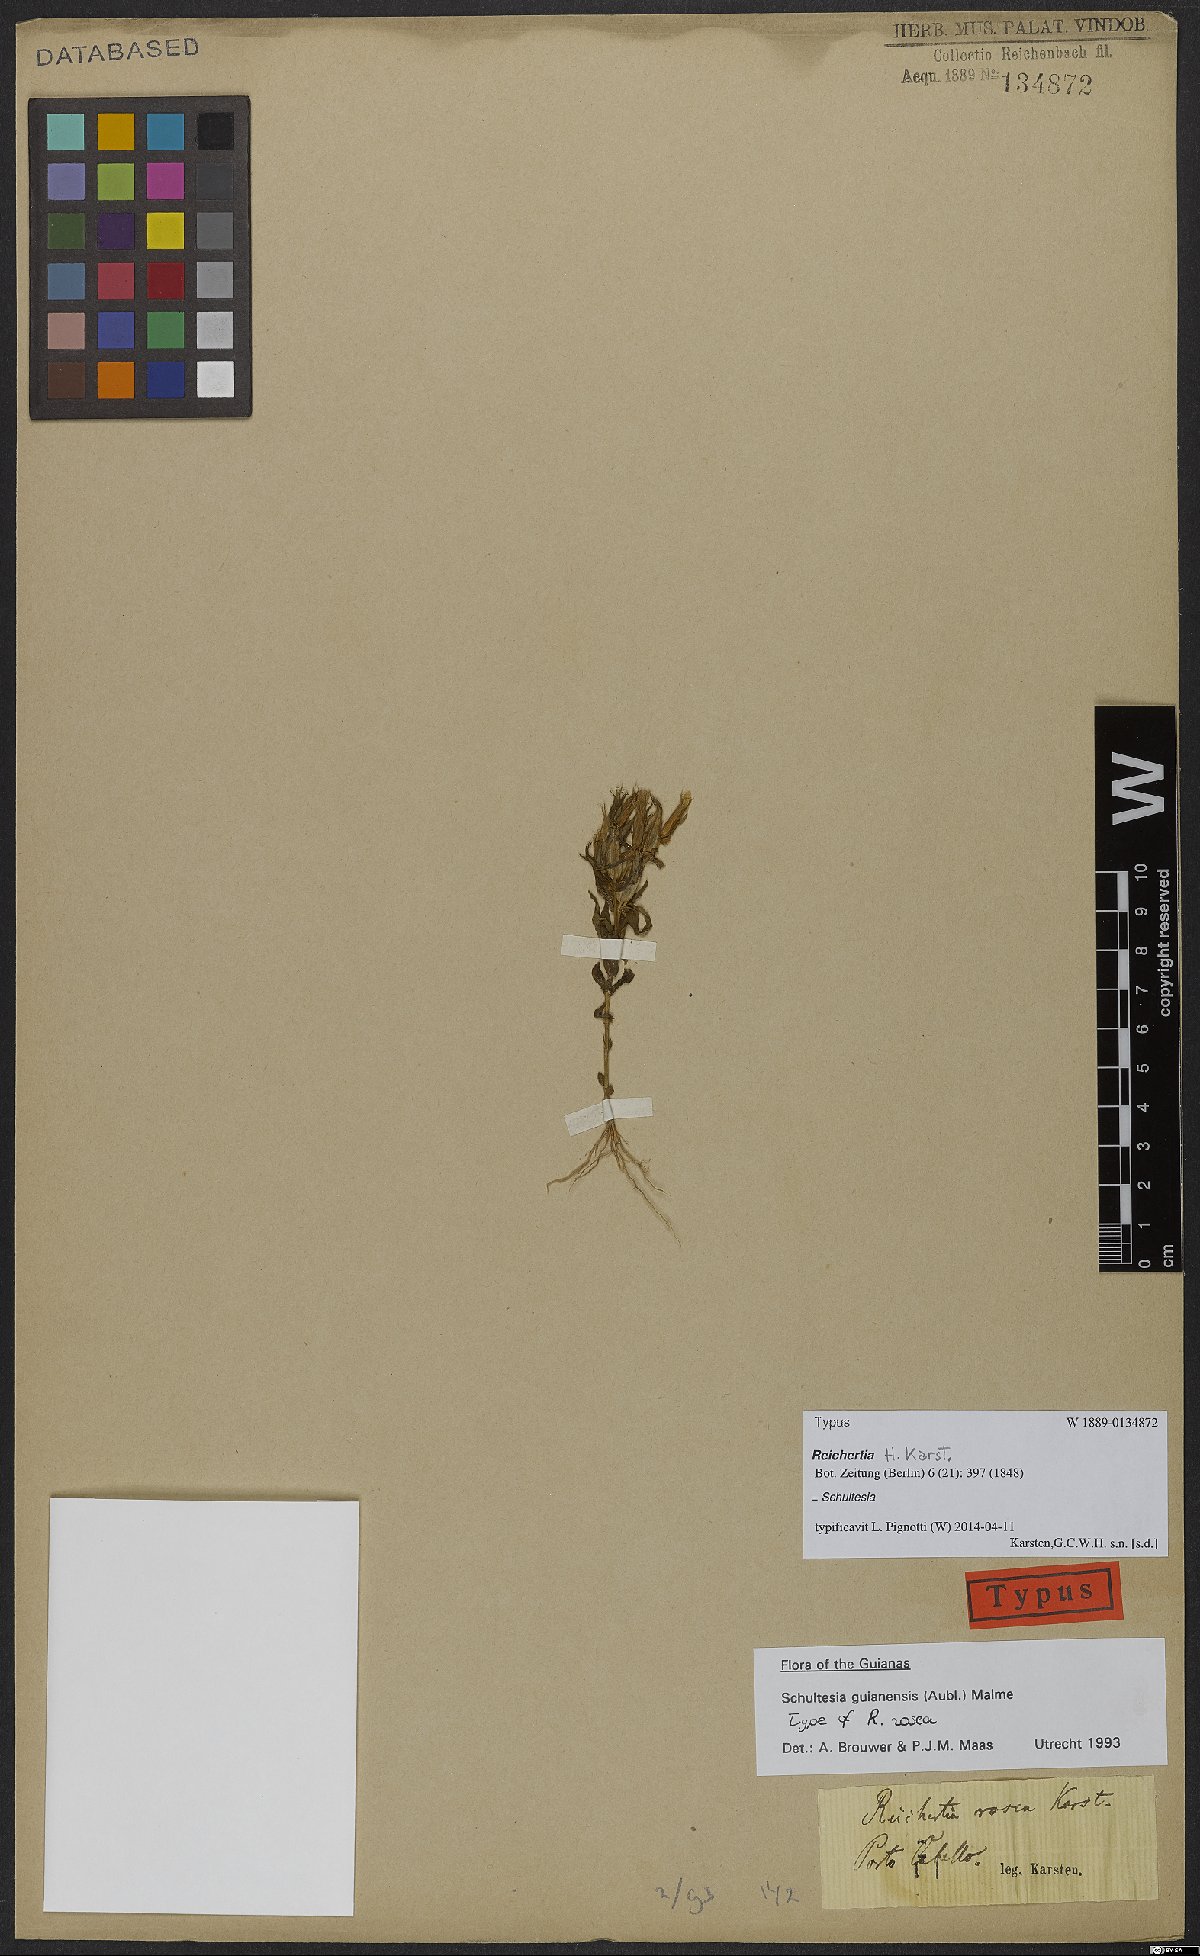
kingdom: Plantae
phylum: Tracheophyta
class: Magnoliopsida
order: Gentianales
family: Gentianaceae
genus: Schultesia
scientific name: Schultesia guianensis
